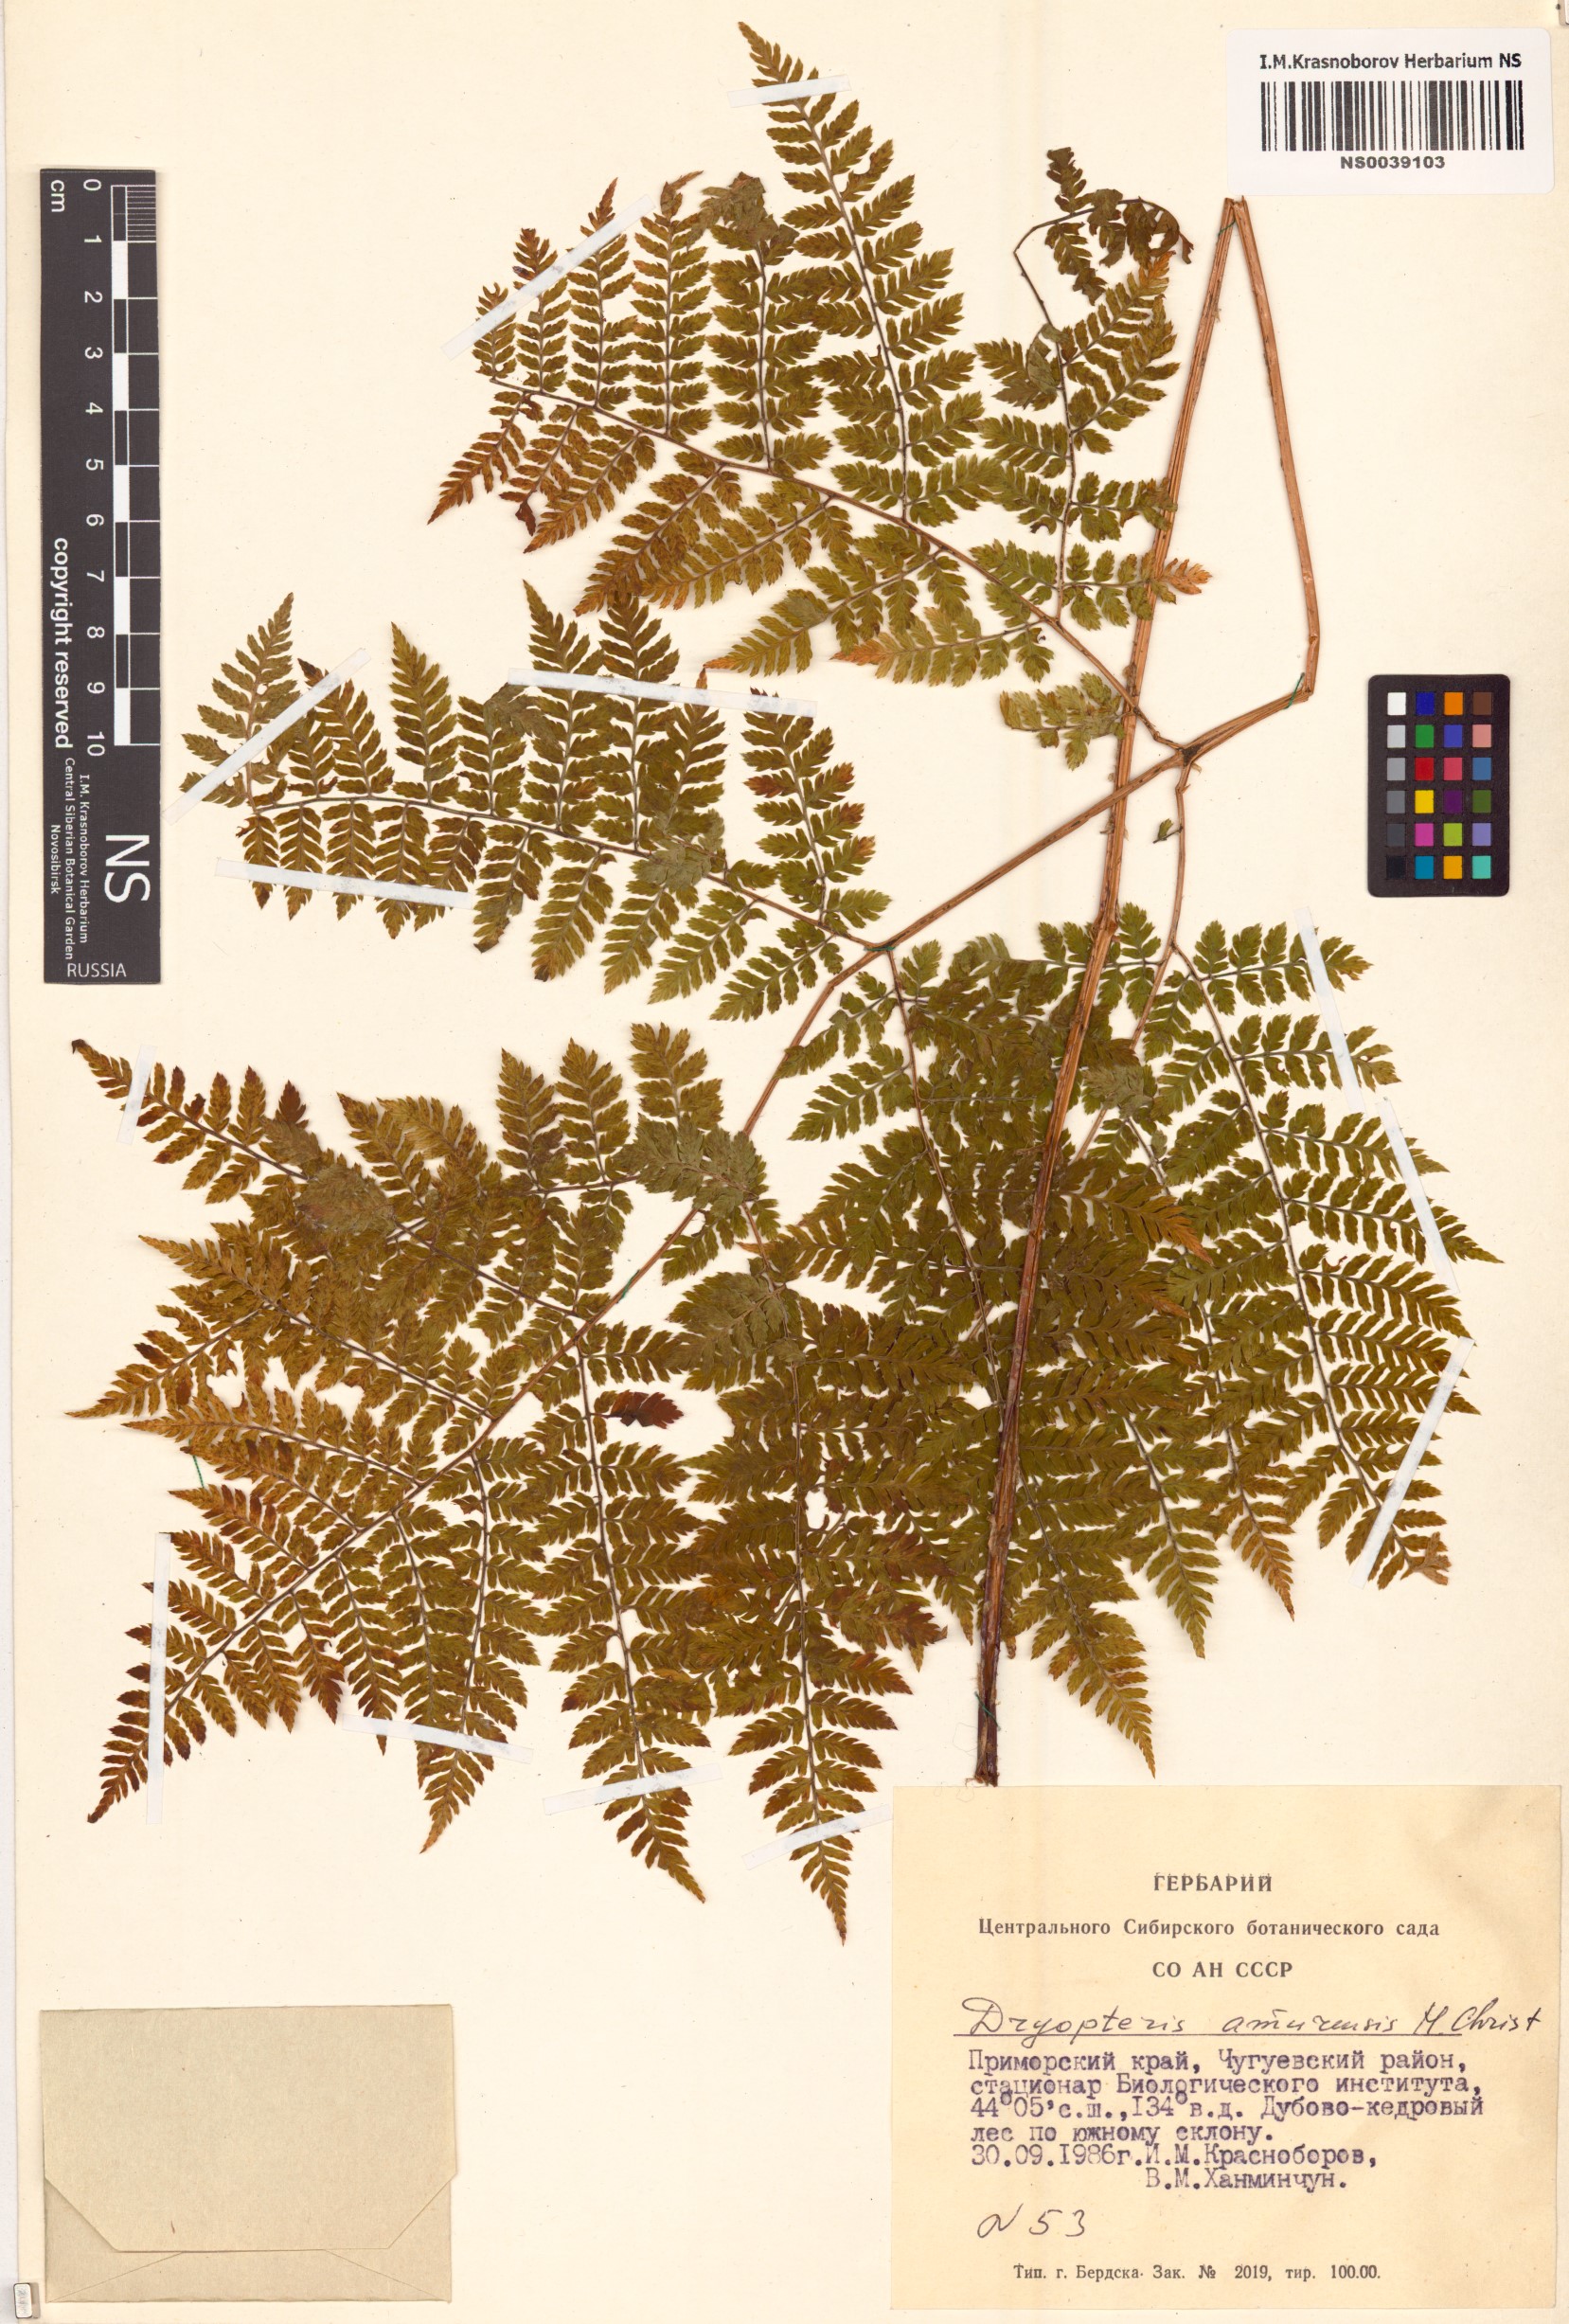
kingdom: Plantae
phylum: Tracheophyta
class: Polypodiopsida
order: Polypodiales
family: Dryopteridaceae
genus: Dryopteris
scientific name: Dryopteris amurensis
